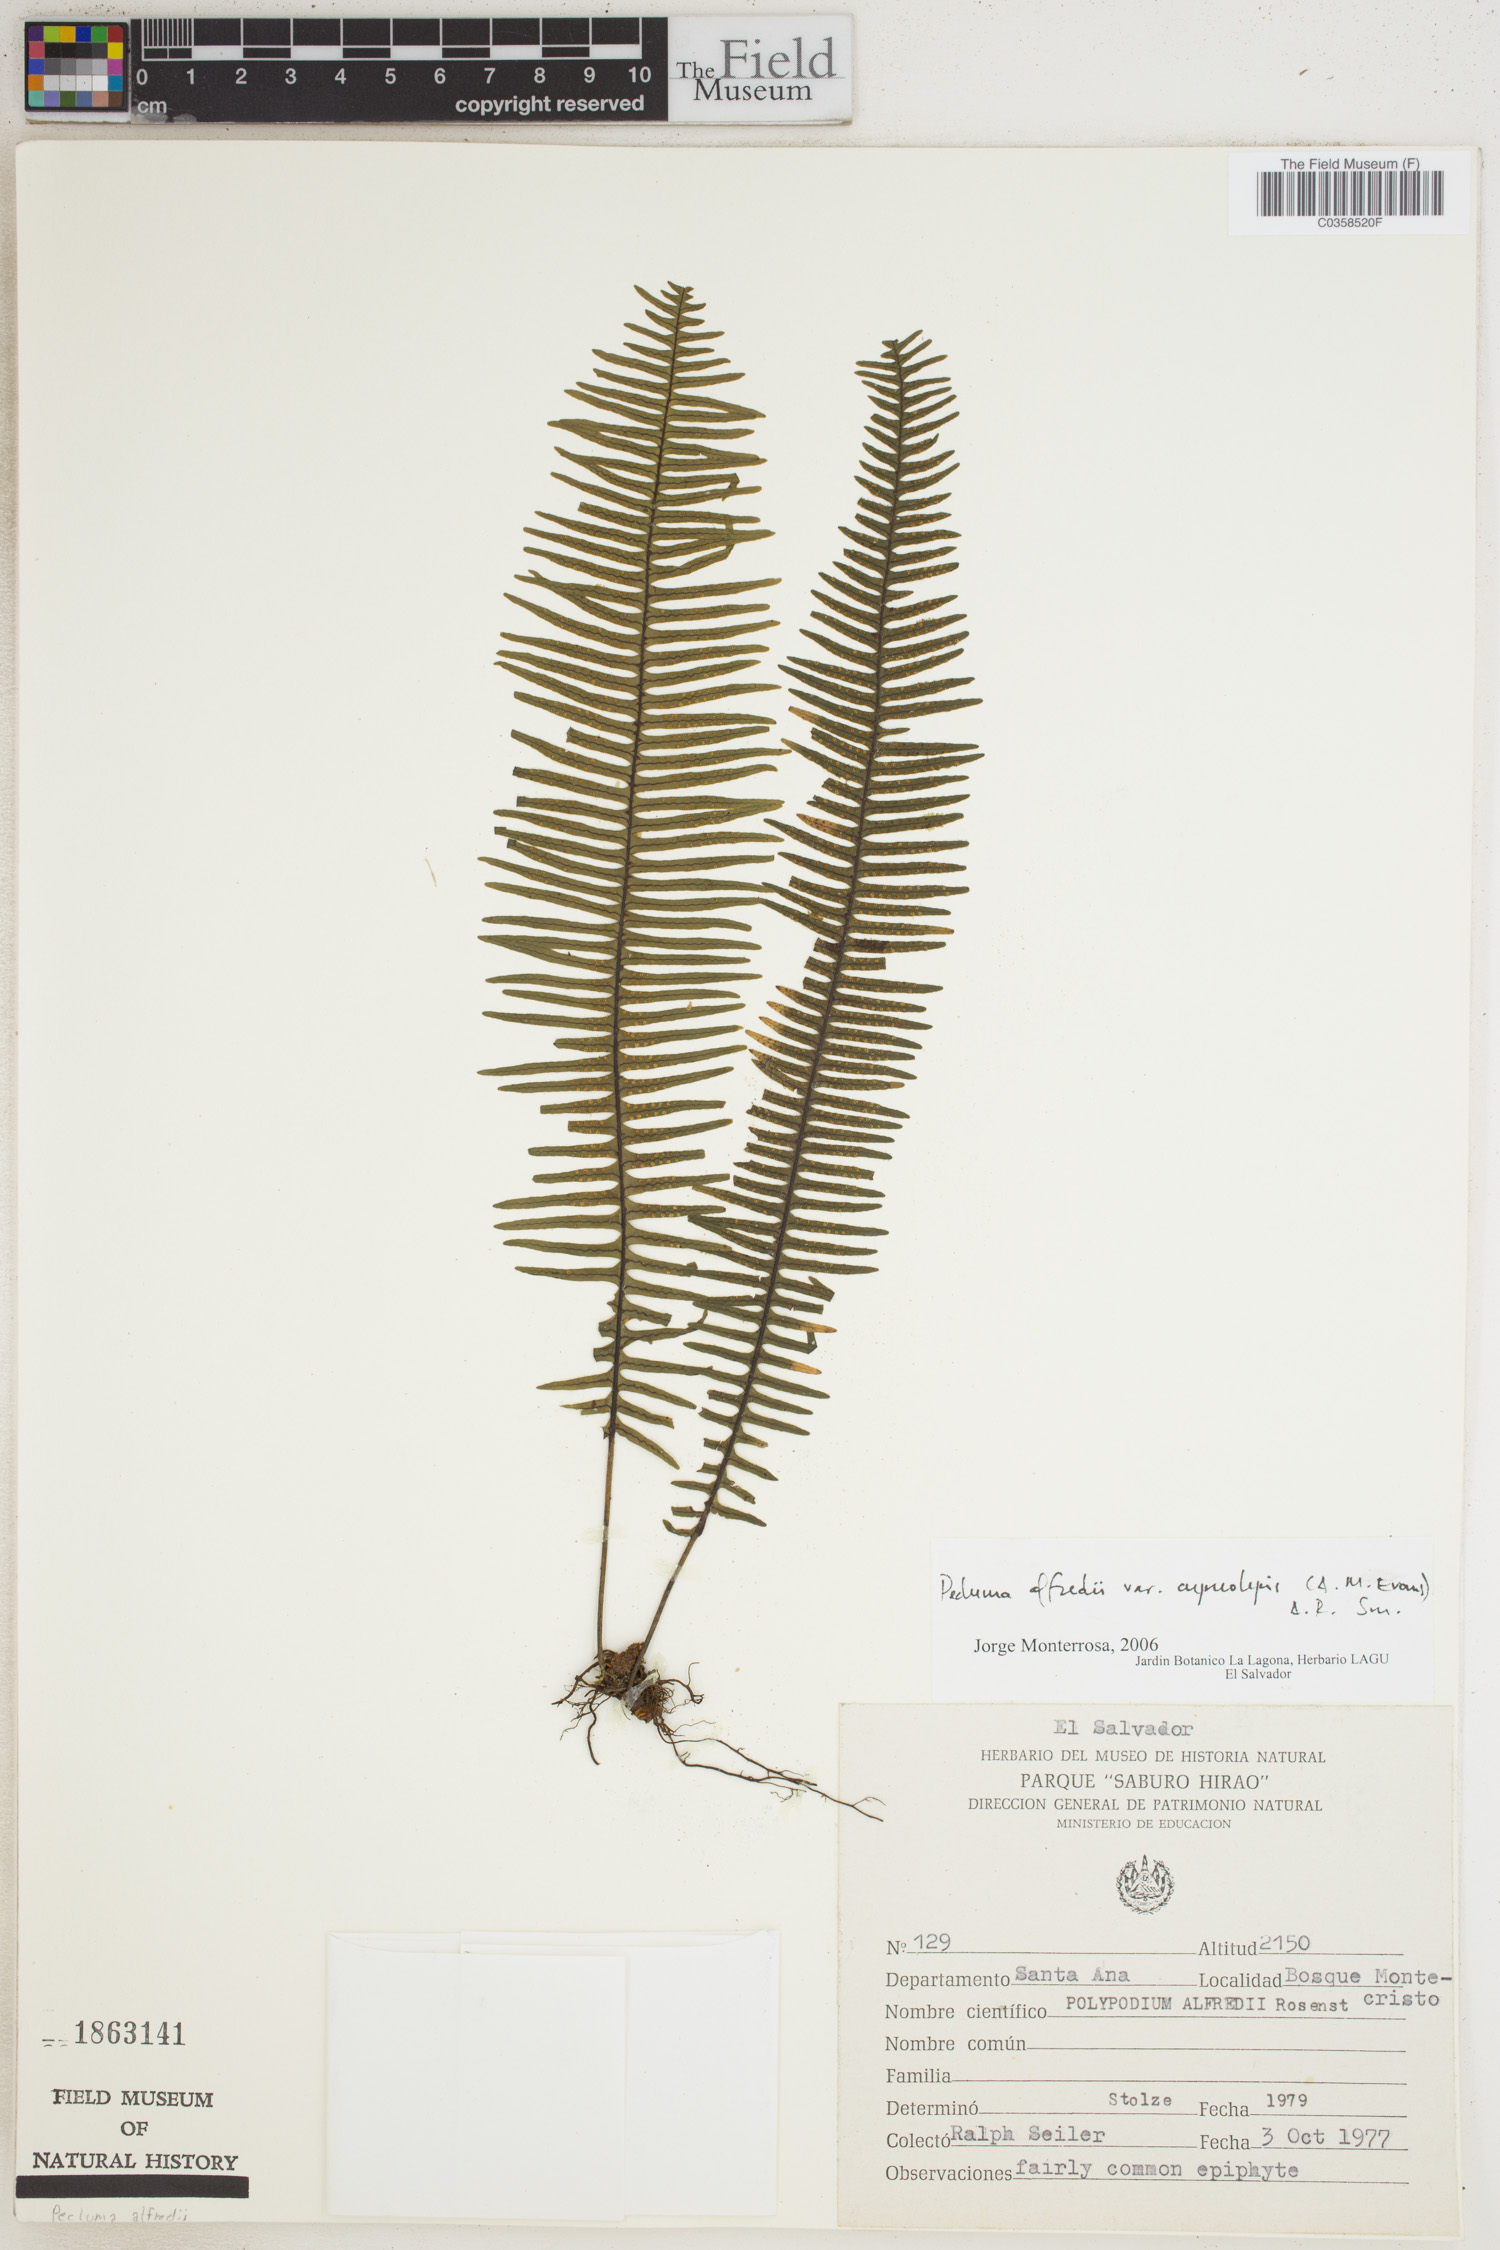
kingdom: Plantae
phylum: Tracheophyta
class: Polypodiopsida
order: Polypodiales
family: Polypodiaceae
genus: Pecluma
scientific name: Pecluma alfredii
